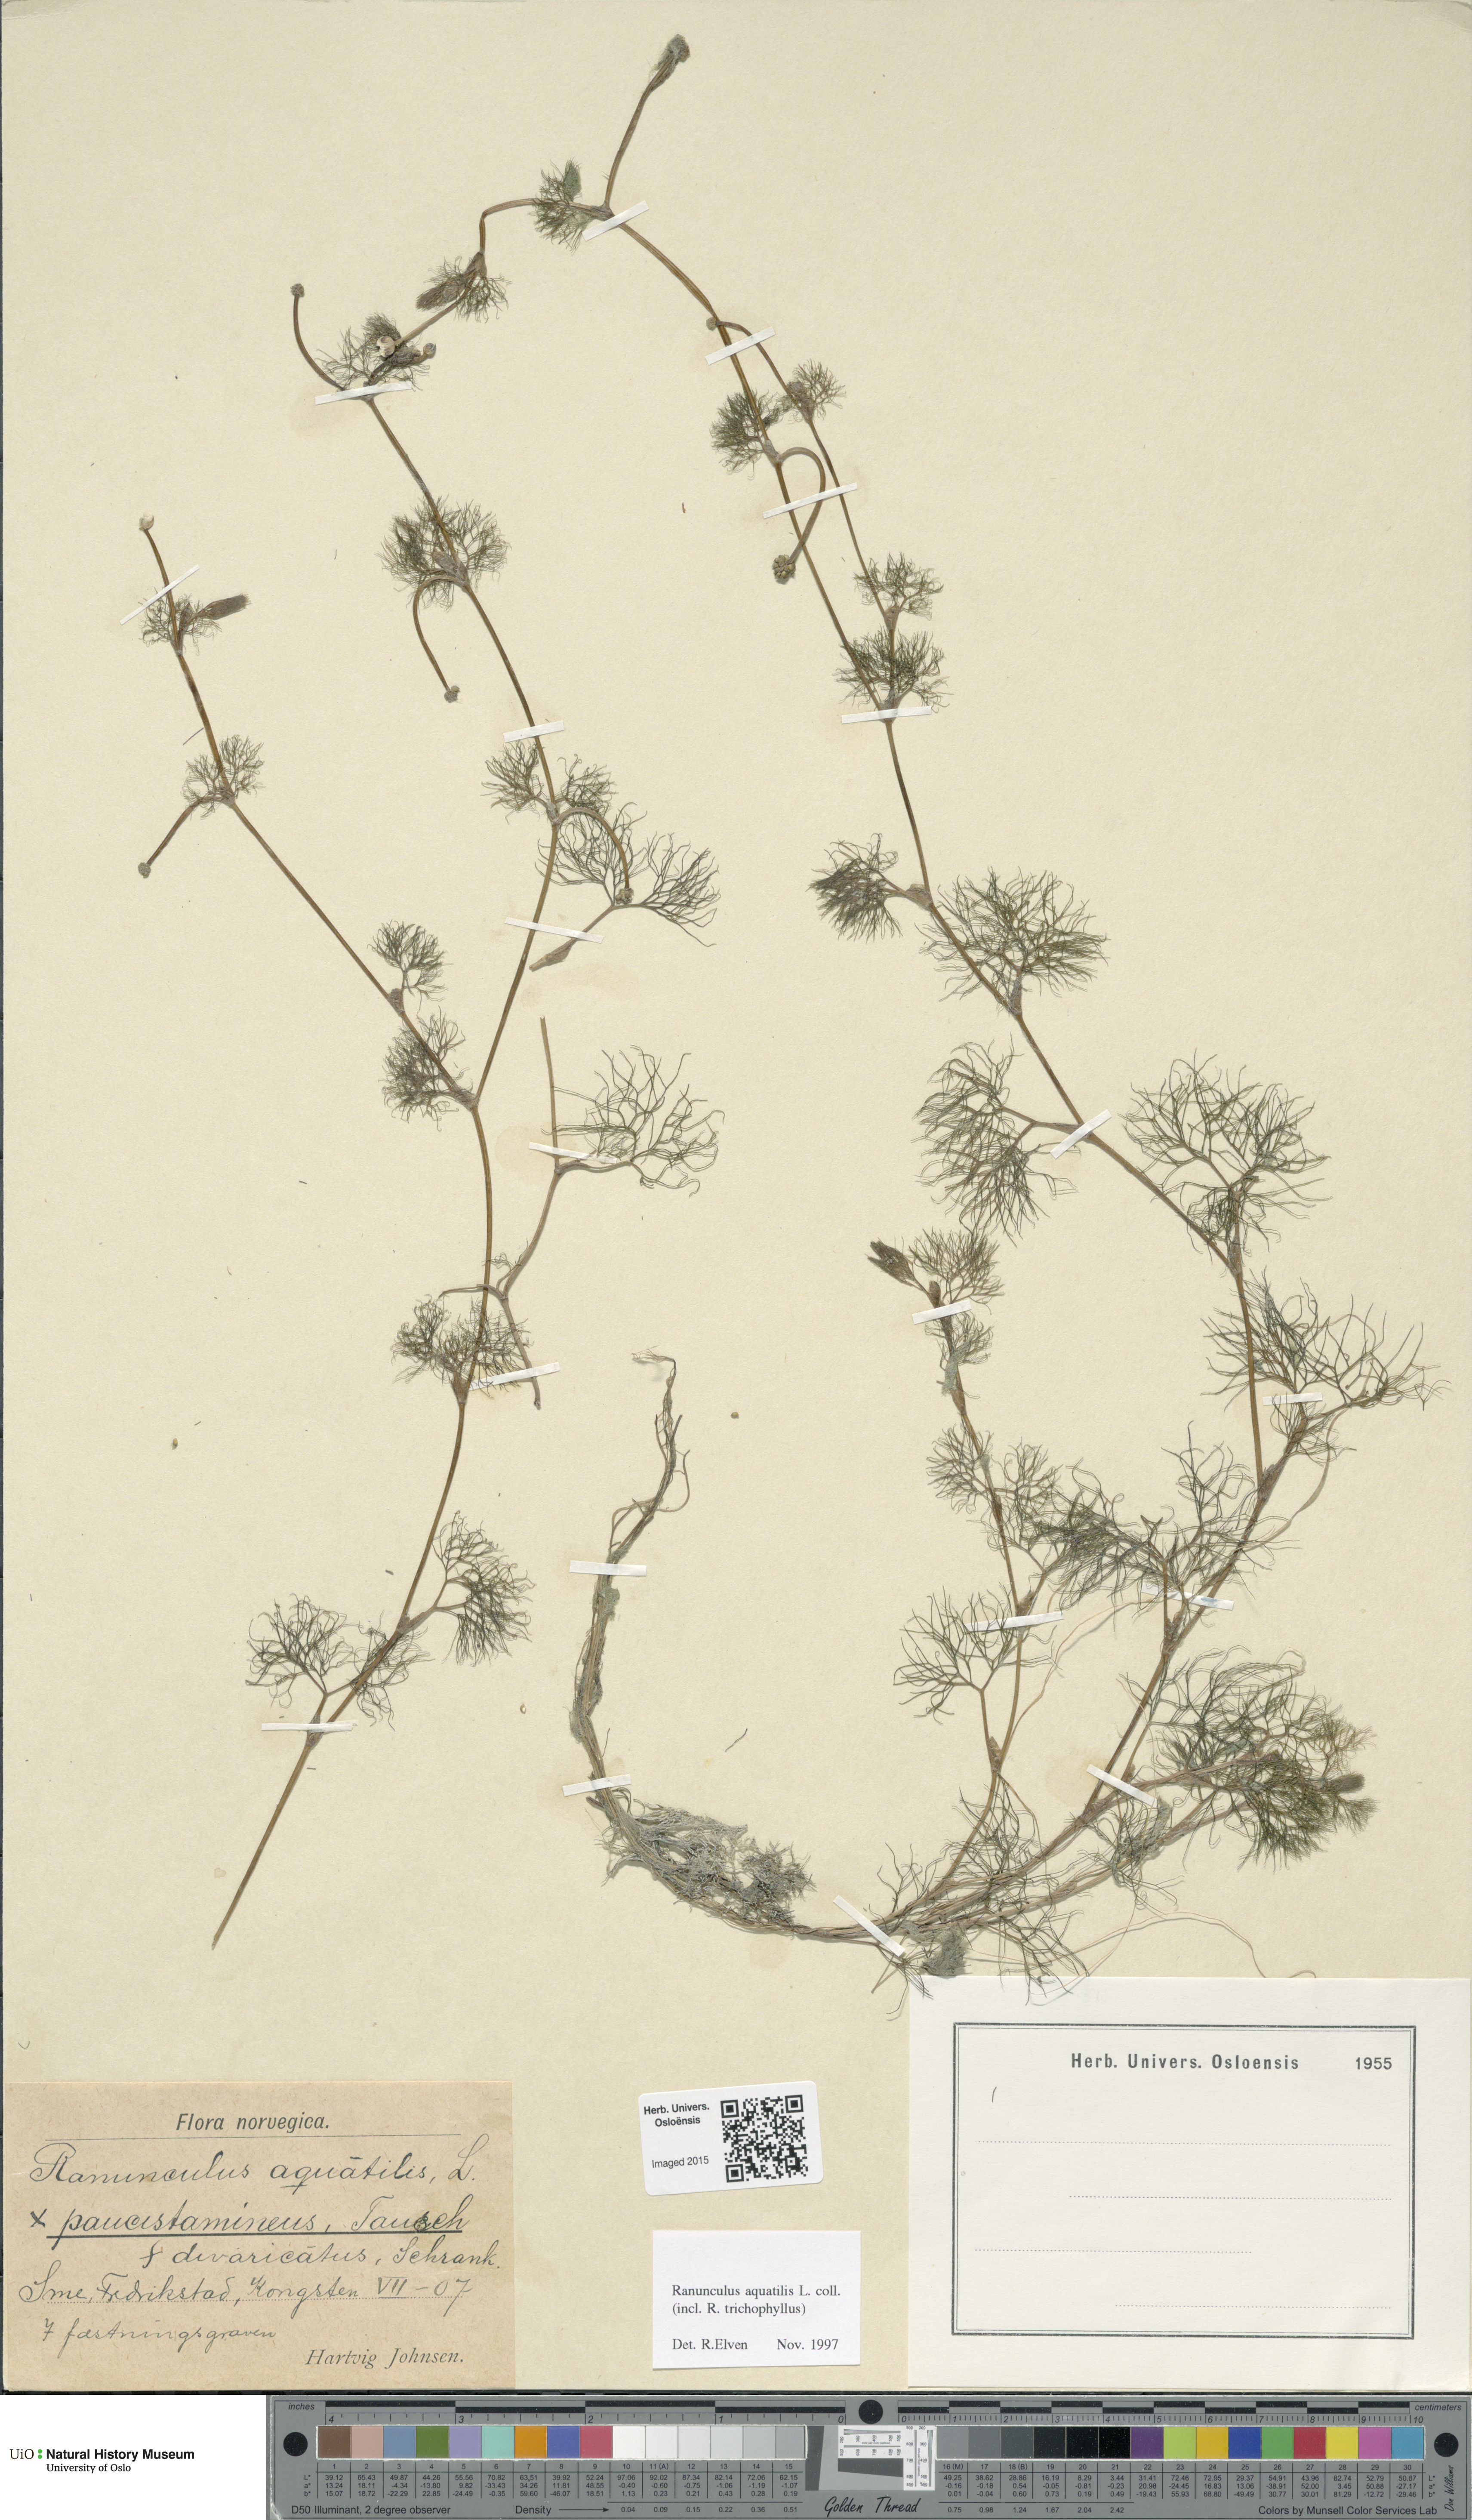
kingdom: Plantae
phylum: Tracheophyta
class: Magnoliopsida
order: Ranunculales
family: Ranunculaceae
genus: Ranunculus
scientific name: Ranunculus aquatilis
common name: Common water-crowfoot
